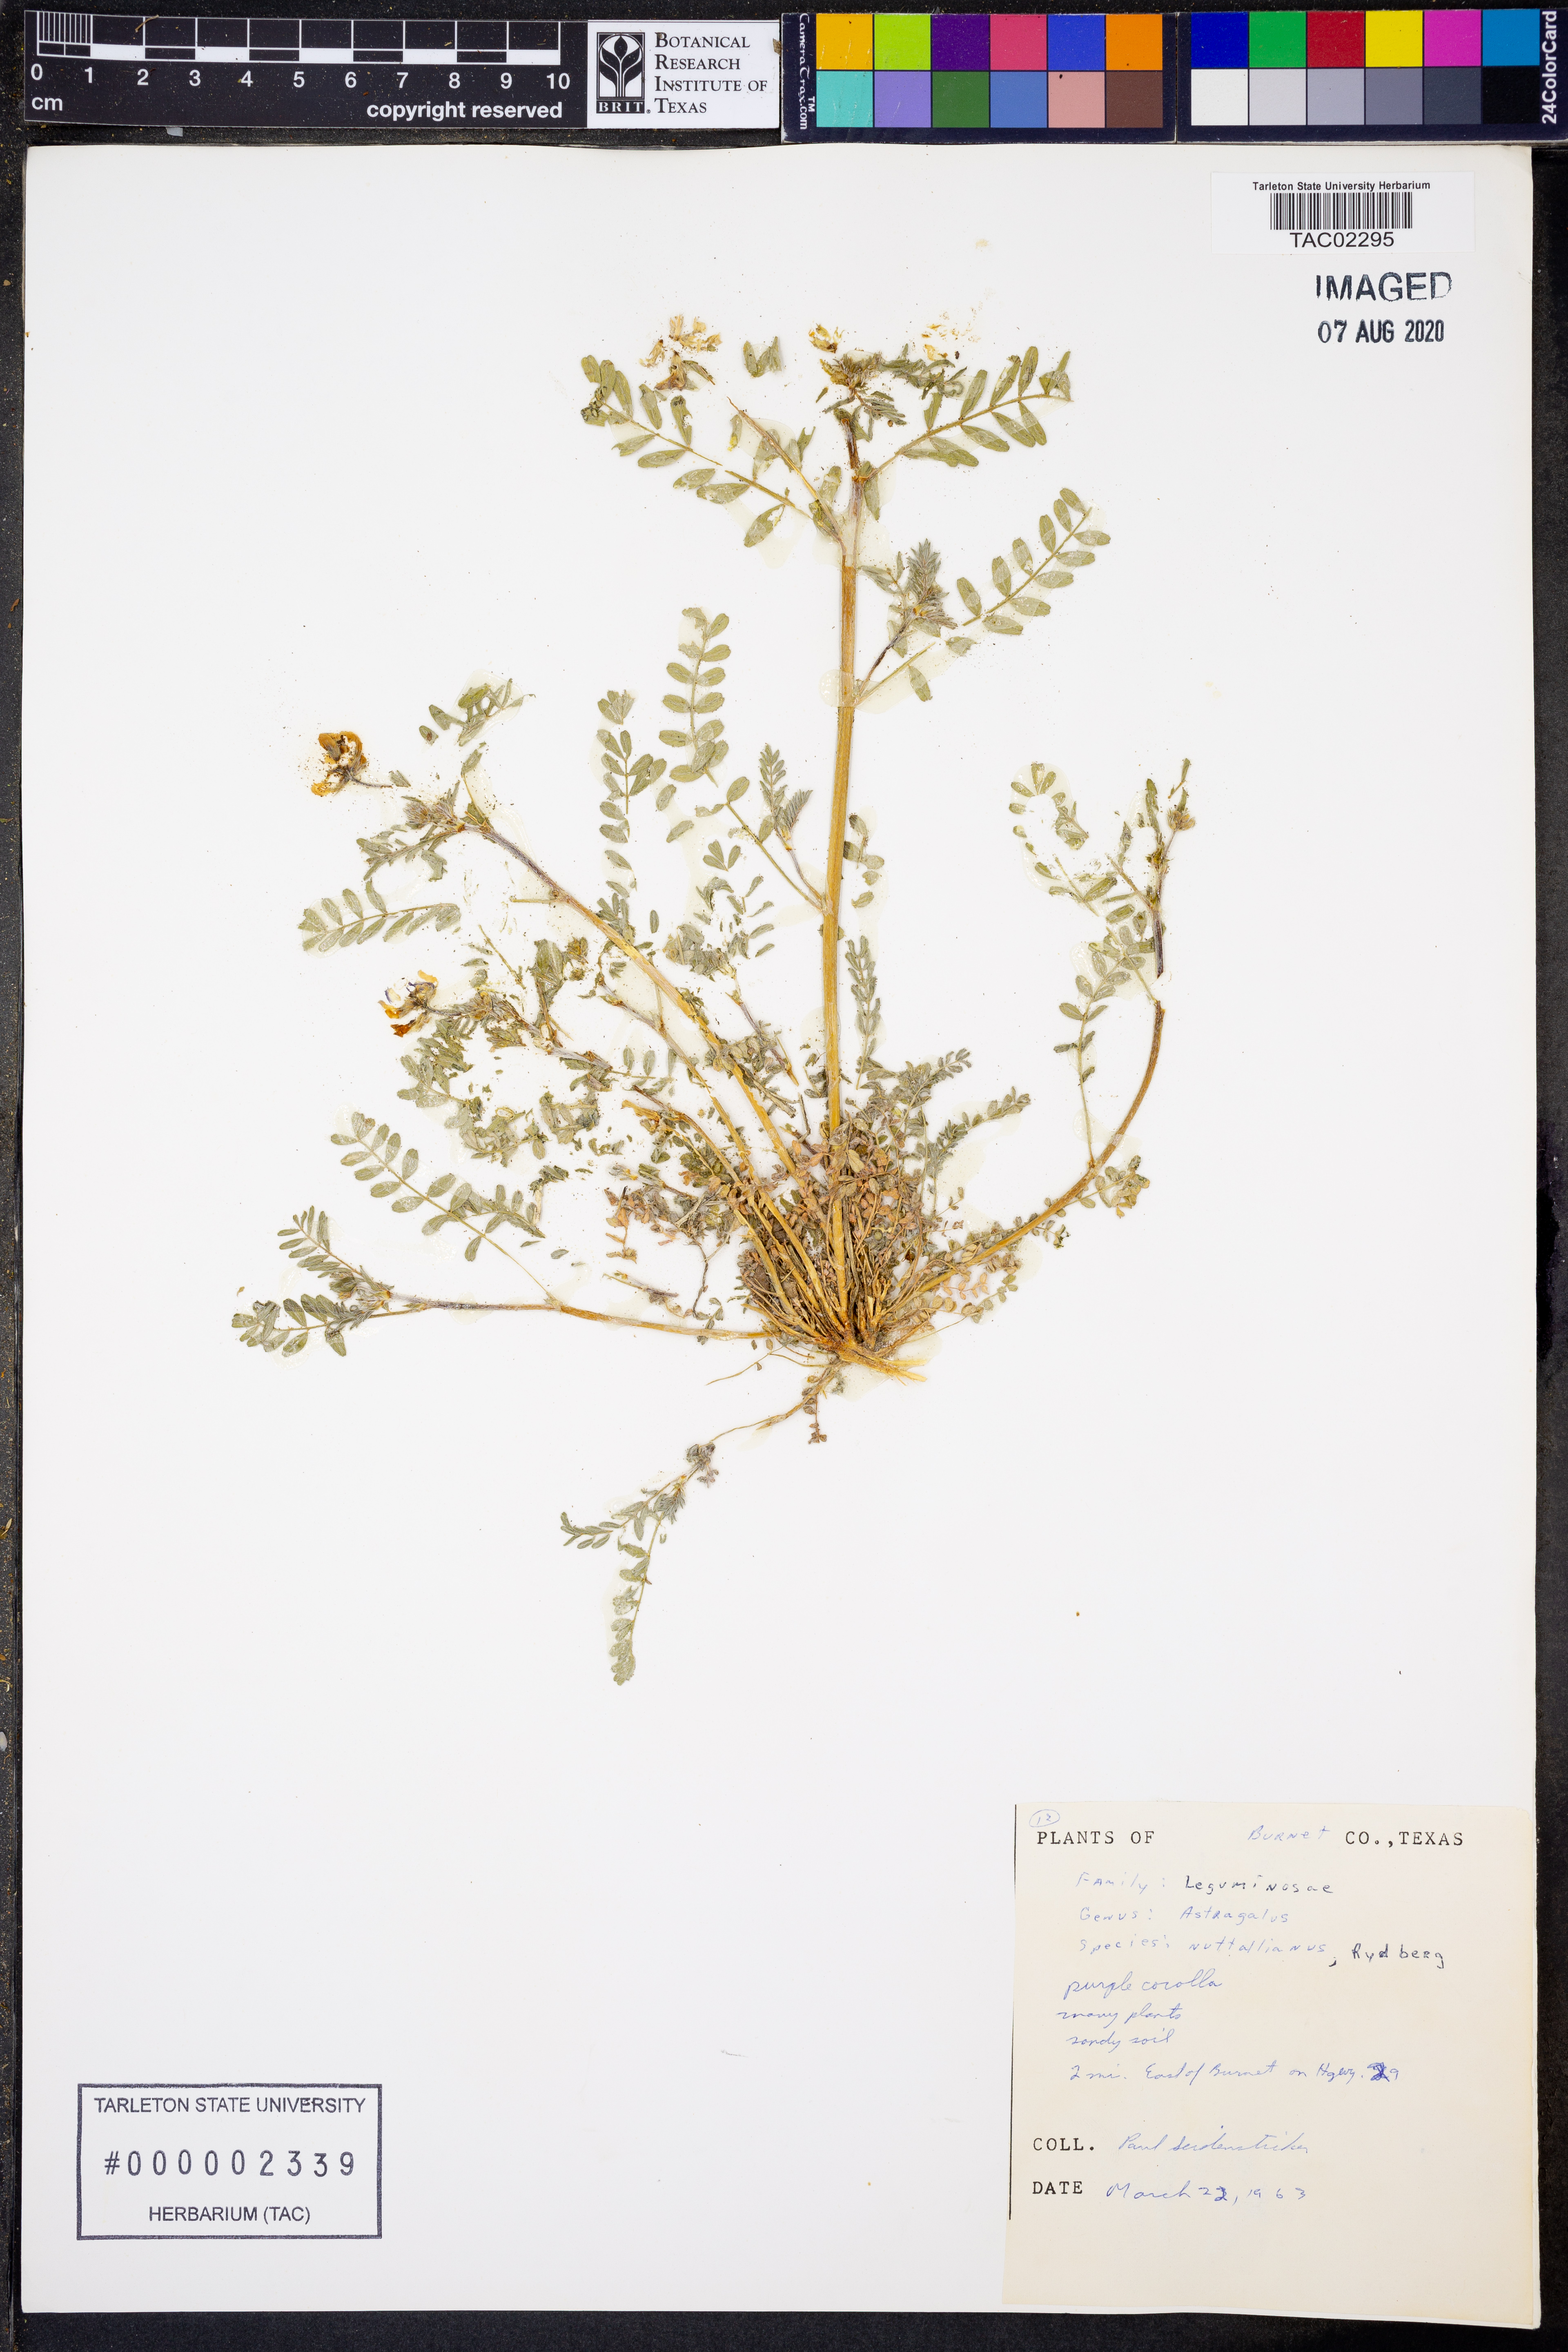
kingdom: Plantae
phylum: Tracheophyta
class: Magnoliopsida
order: Fabales
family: Fabaceae
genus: Astragalus
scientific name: Astragalus nuttallianus
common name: Smallflowered milkvetch
